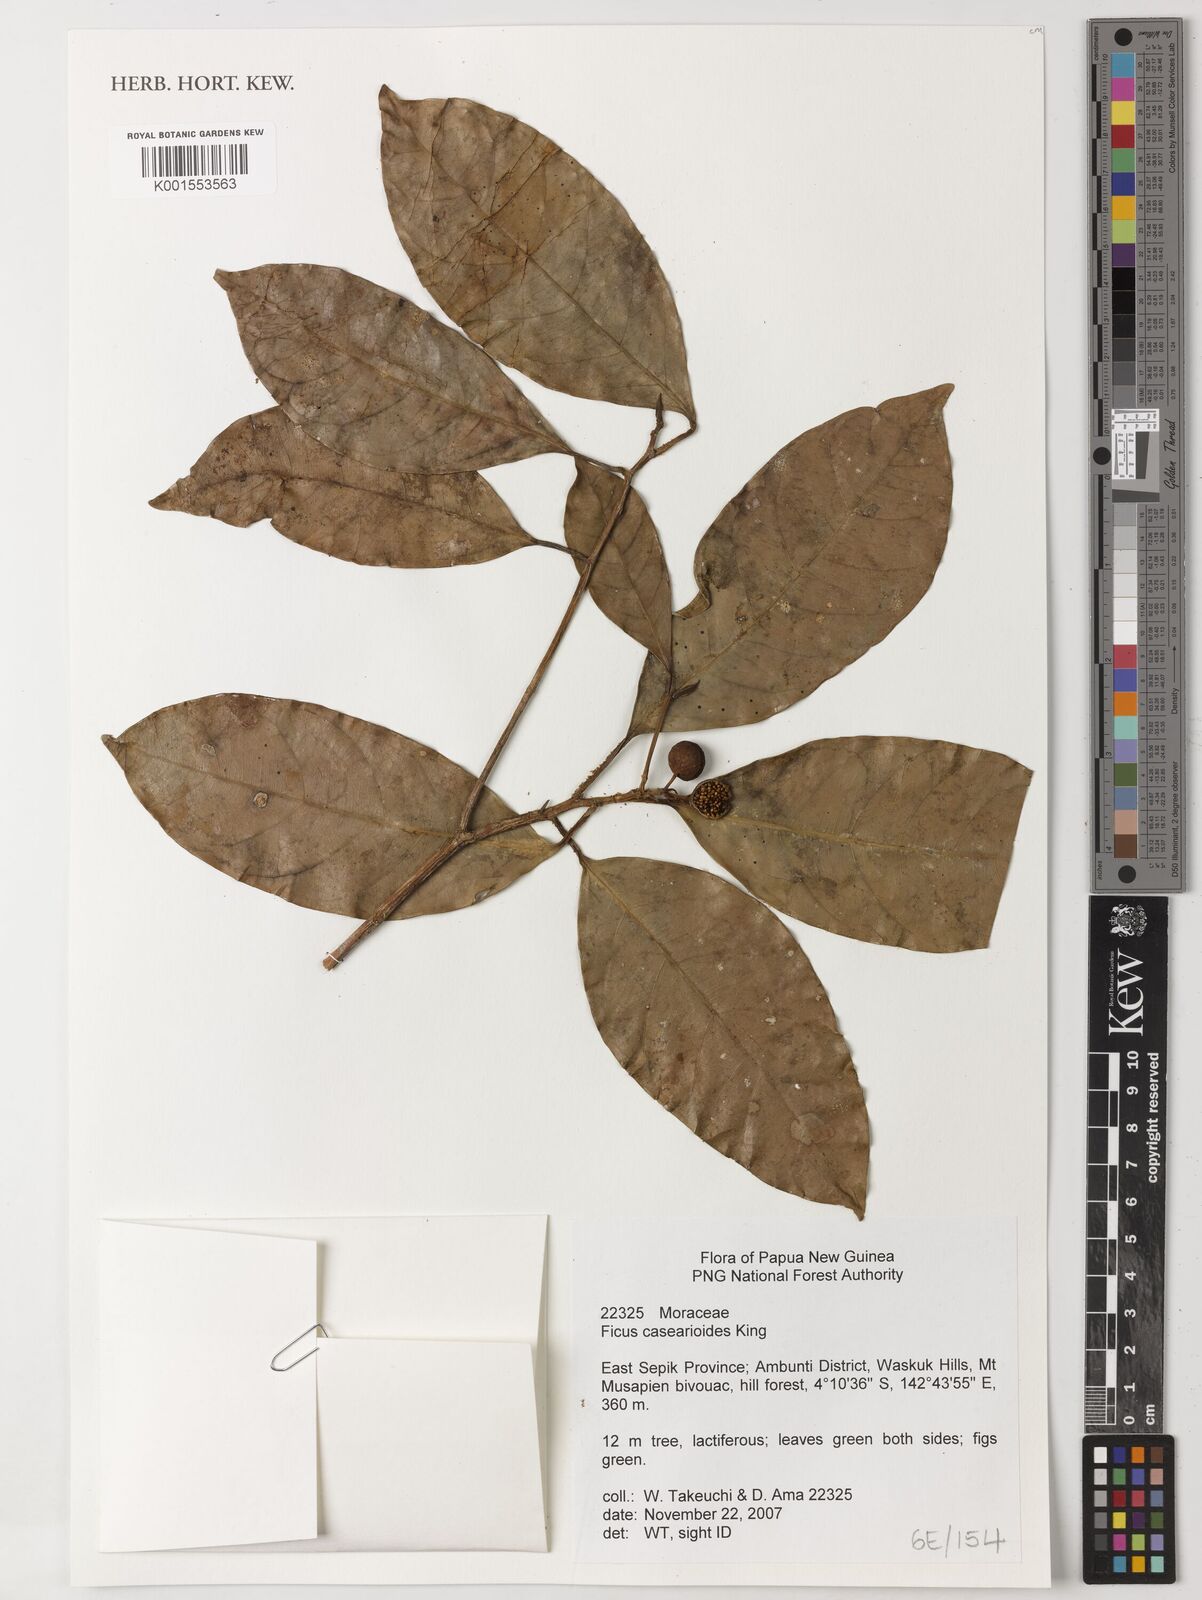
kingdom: Plantae
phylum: Tracheophyta
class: Magnoliopsida
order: Rosales
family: Moraceae
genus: Ficus
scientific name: Ficus casearioides
